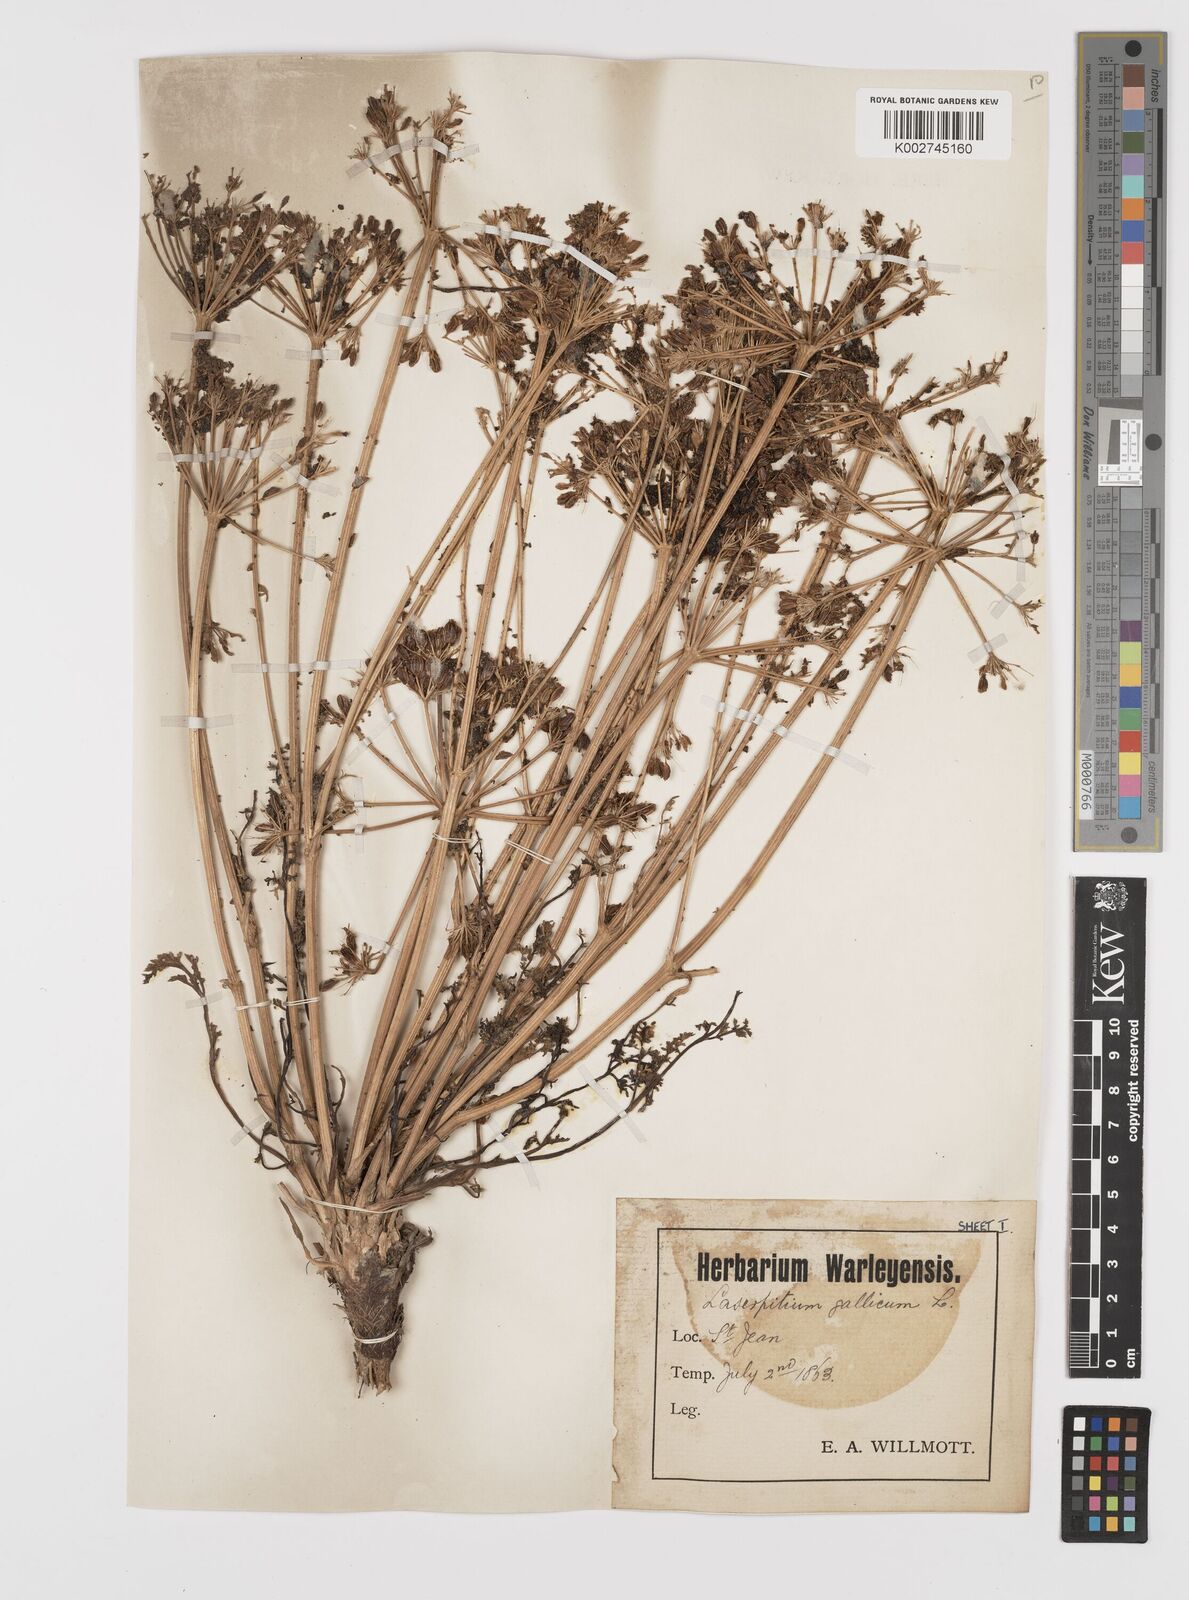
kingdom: Plantae
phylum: Tracheophyta
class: Magnoliopsida
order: Apiales
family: Apiaceae
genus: Laserpitium
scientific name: Laserpitium gallicum
